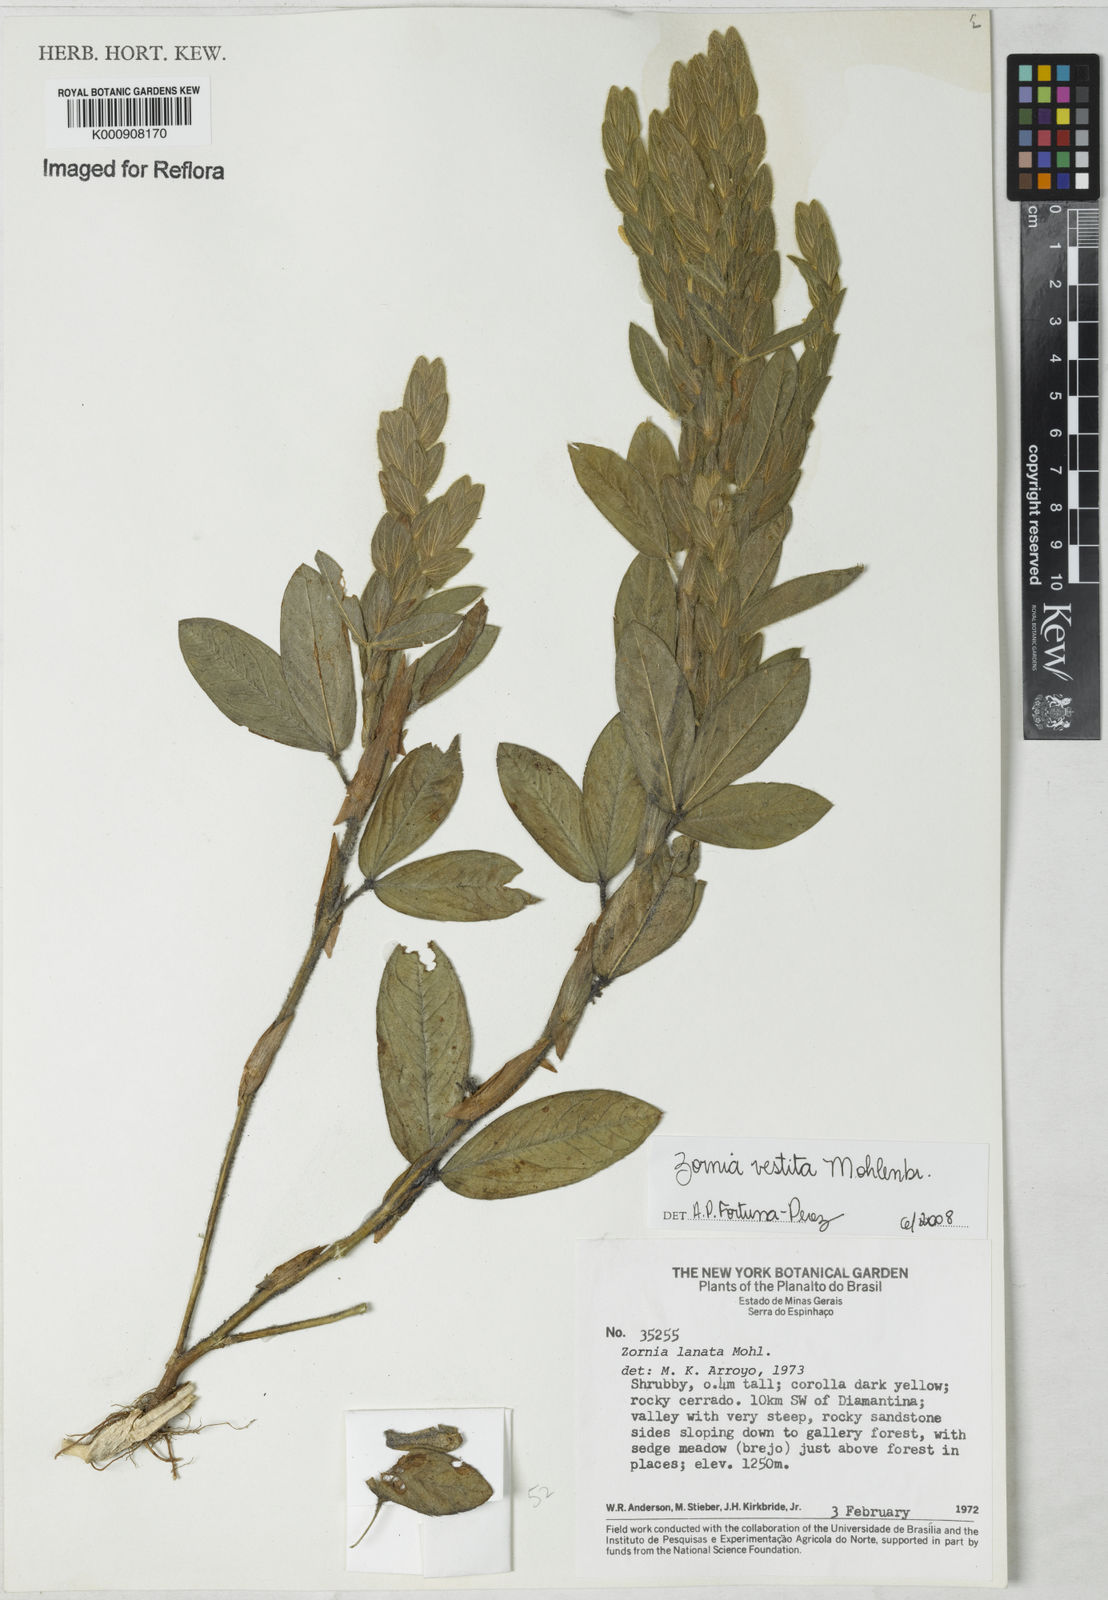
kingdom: Plantae
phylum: Tracheophyta
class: Magnoliopsida
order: Fabales
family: Fabaceae
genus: Zornia
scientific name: Zornia villosa
